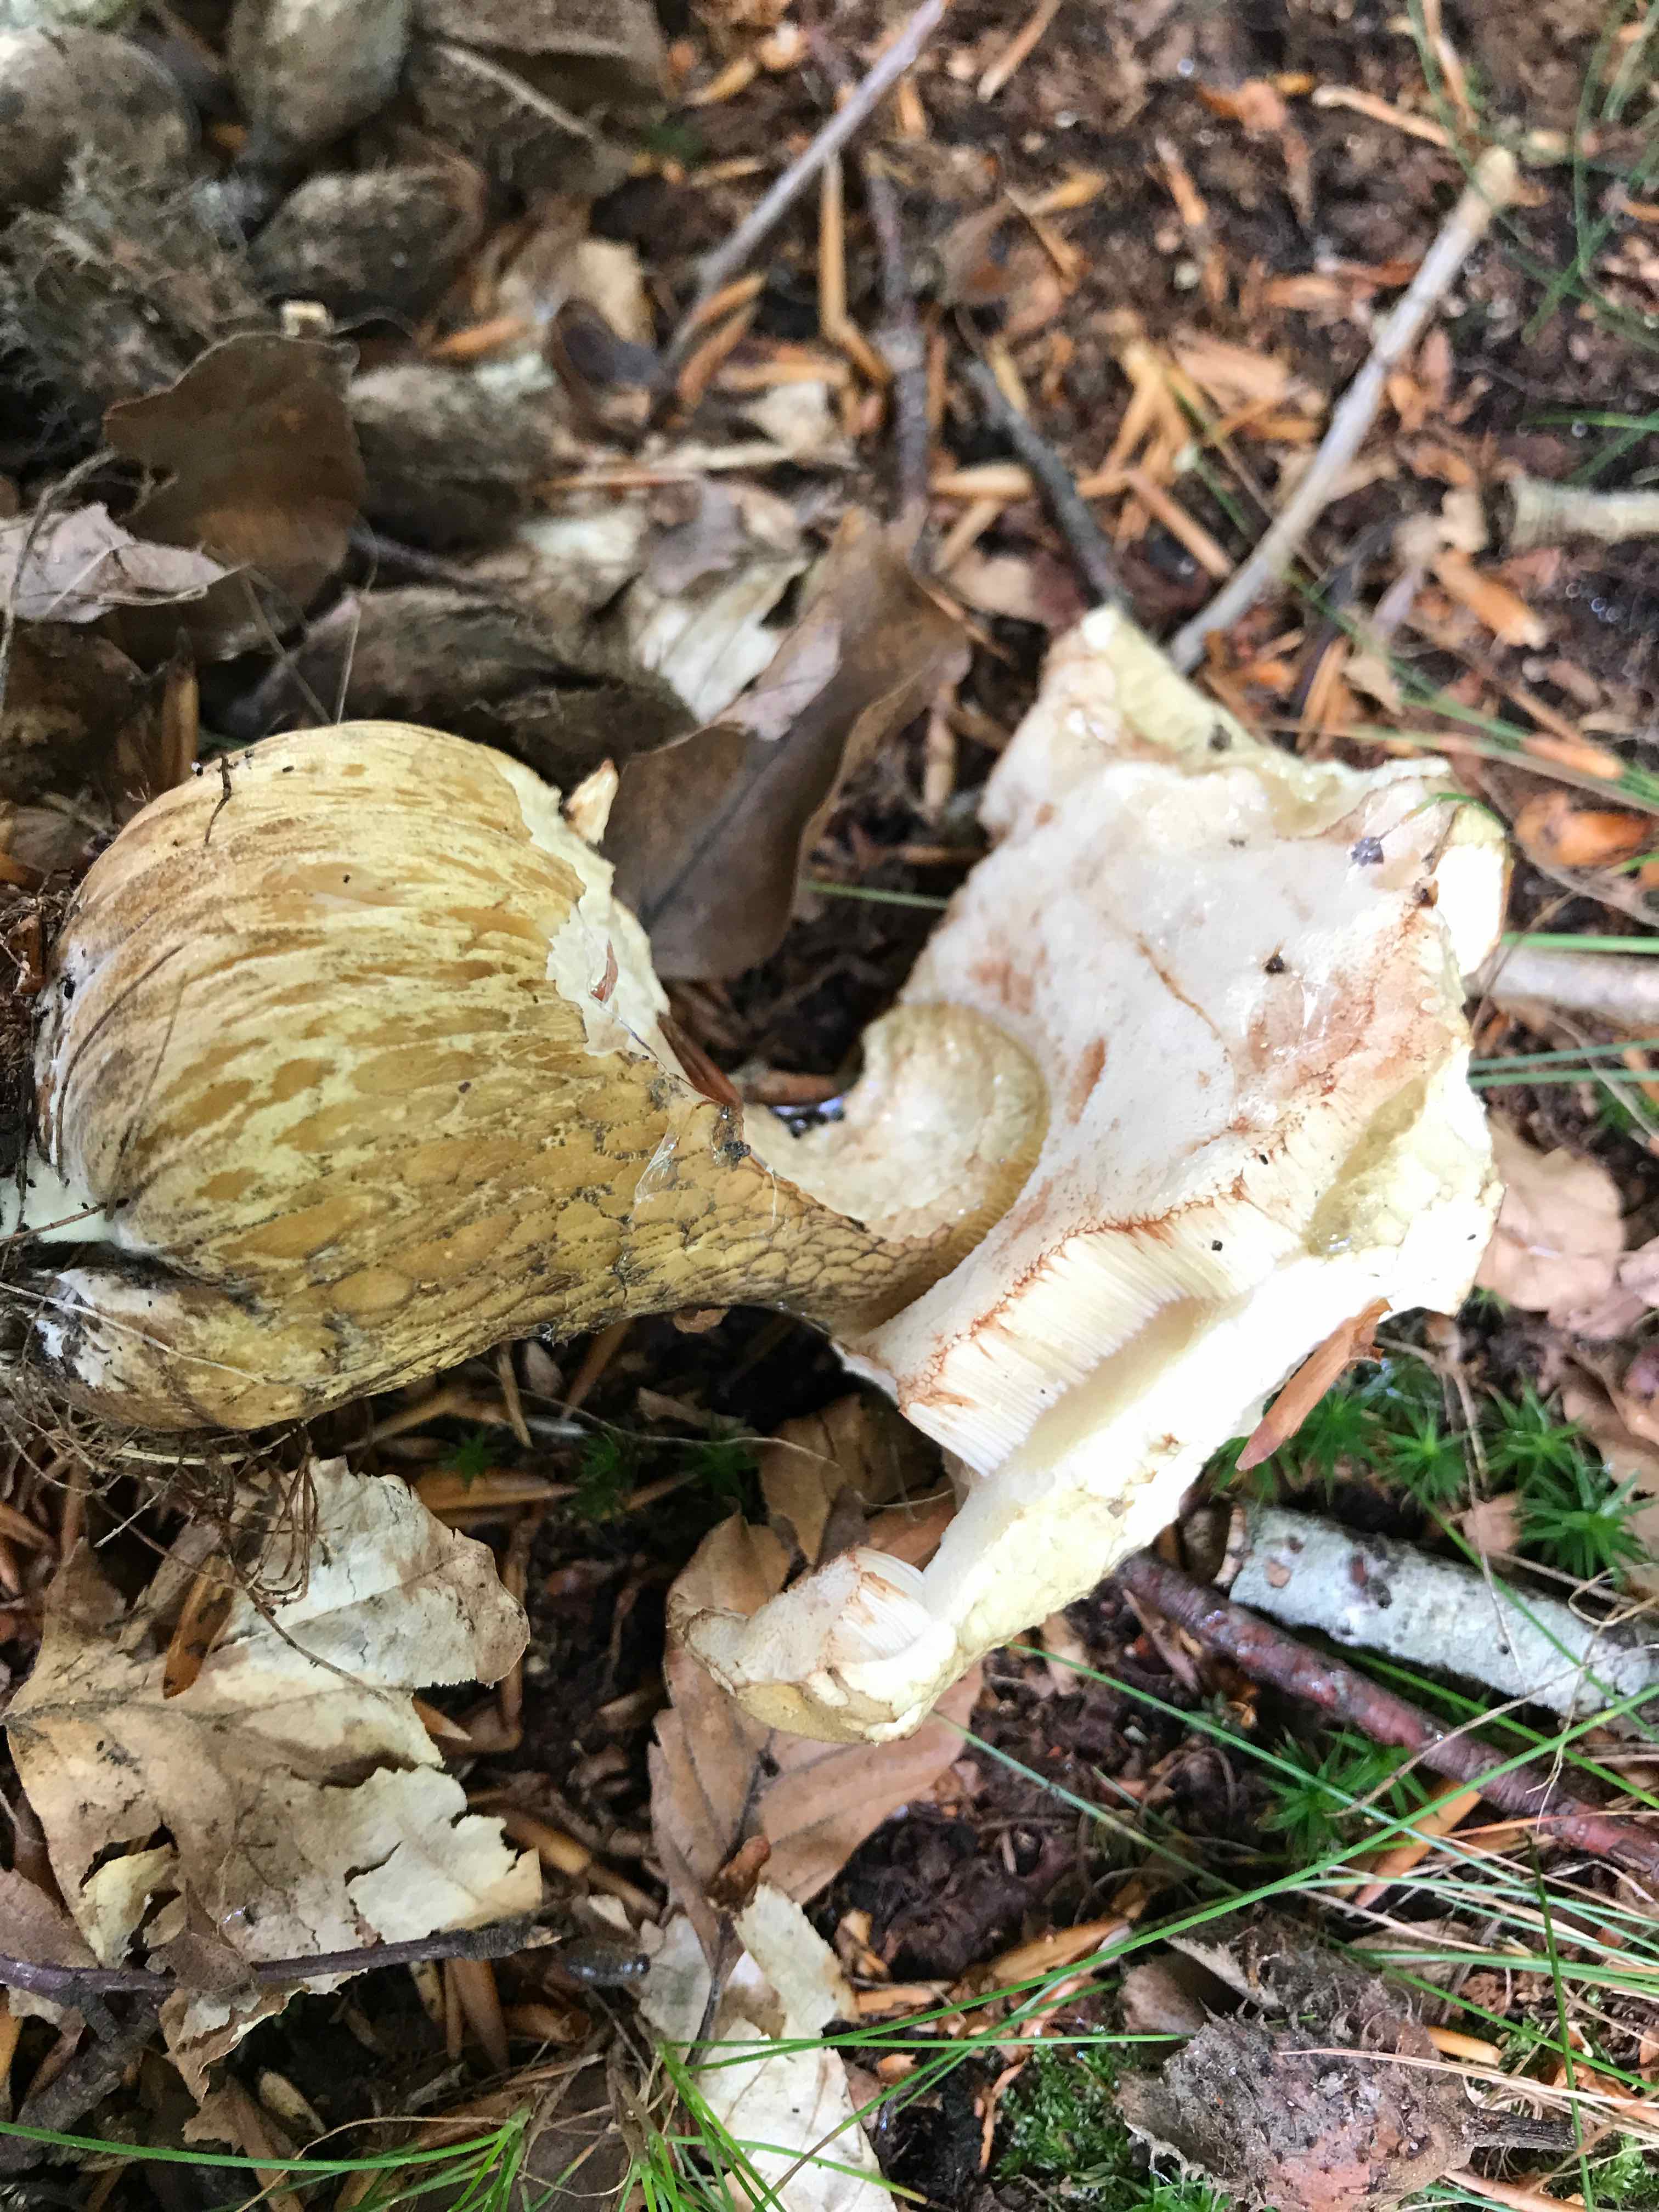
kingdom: Fungi
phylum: Basidiomycota
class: Agaricomycetes
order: Boletales
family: Boletaceae
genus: Tylopilus
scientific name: Tylopilus felleus
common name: galderørhat
